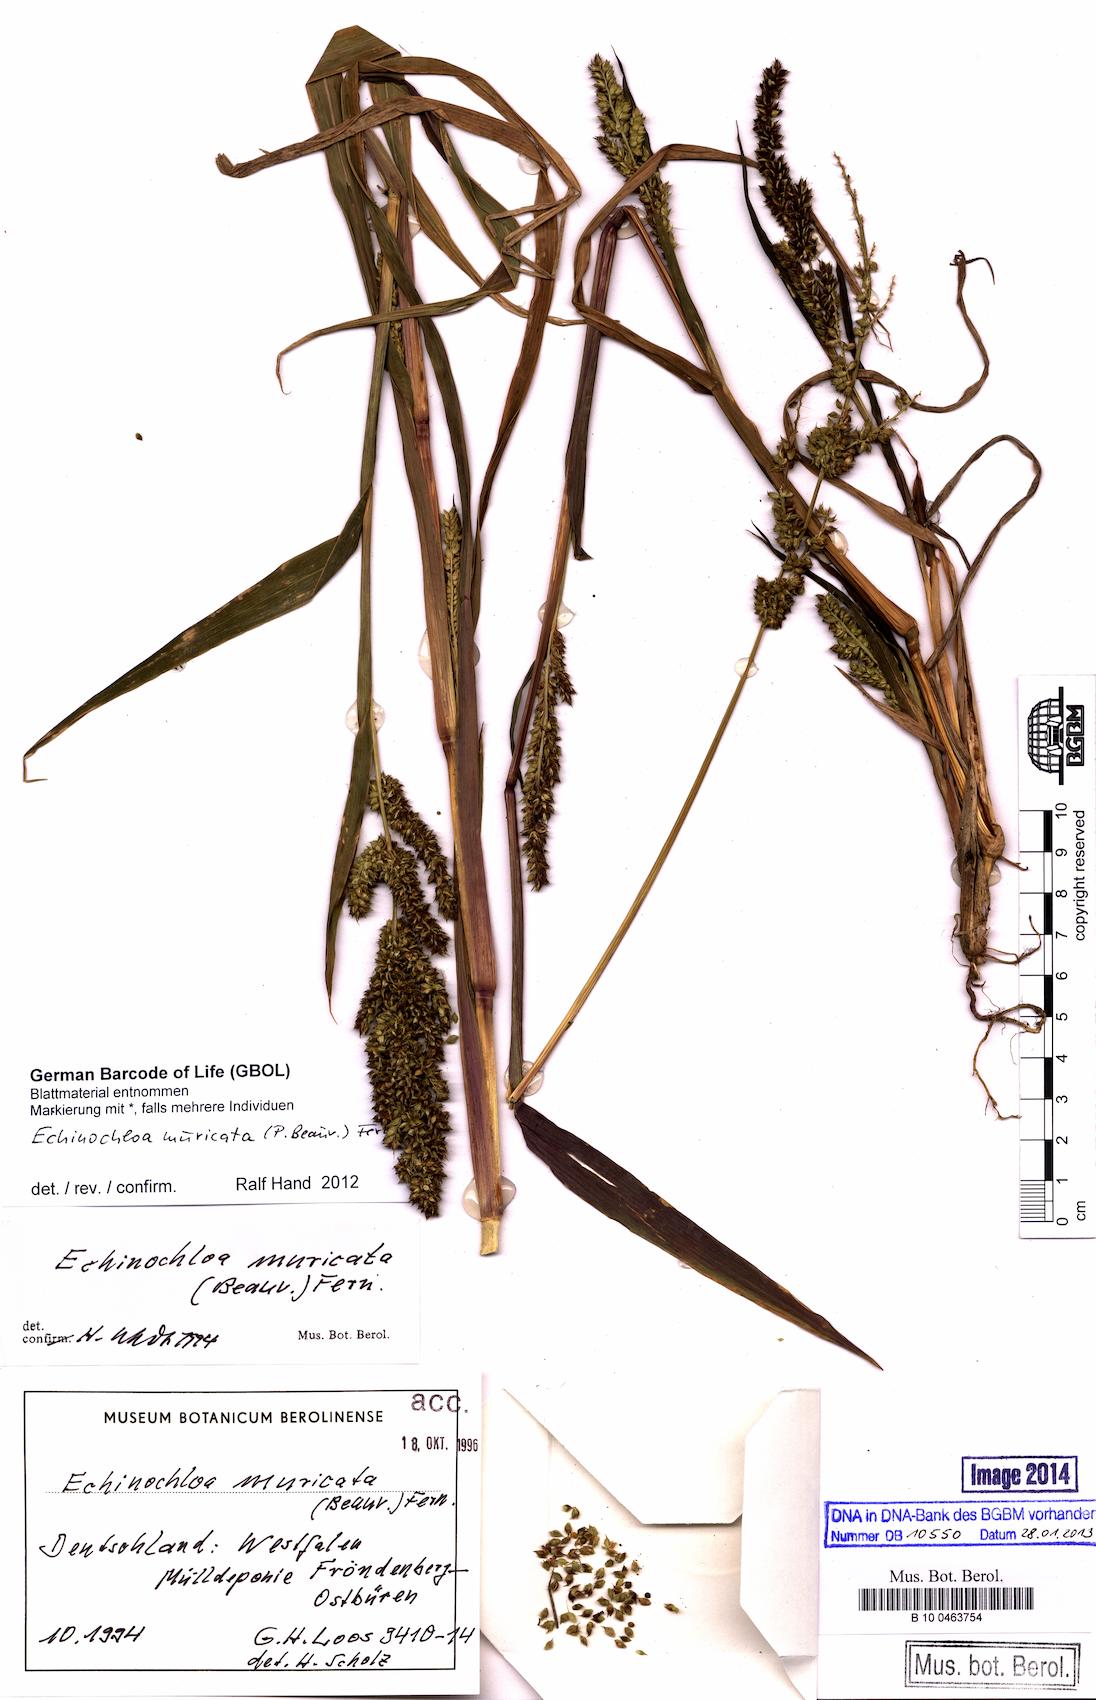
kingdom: Plantae
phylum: Tracheophyta
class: Liliopsida
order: Poales
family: Poaceae
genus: Echinochloa
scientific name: Echinochloa muricata
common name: American barnyard grass
